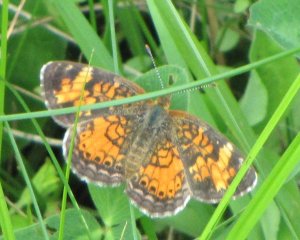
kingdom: Animalia
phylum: Arthropoda
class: Insecta
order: Lepidoptera
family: Nymphalidae
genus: Phyciodes
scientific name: Phyciodes tharos
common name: Northern Crescent
